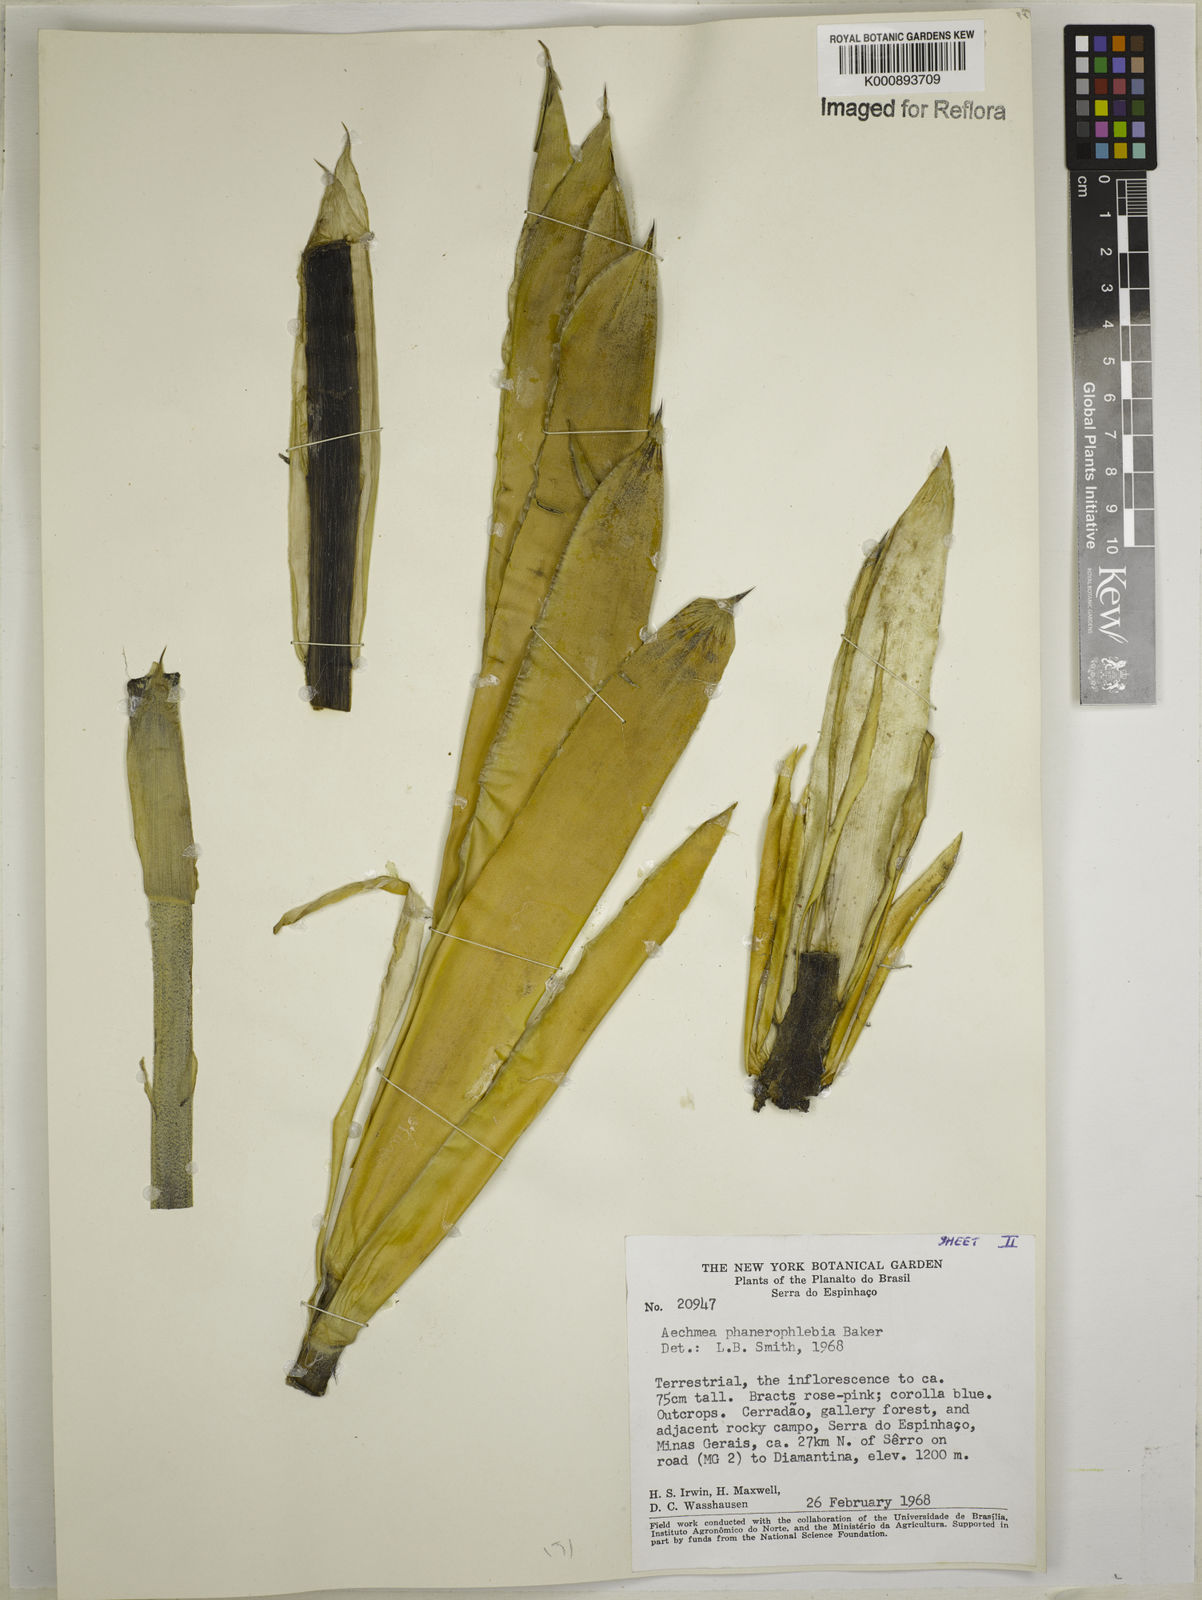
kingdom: Plantae
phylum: Tracheophyta
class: Liliopsida
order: Poales
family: Bromeliaceae
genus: Aechmea
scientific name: Aechmea phanerophlebia
